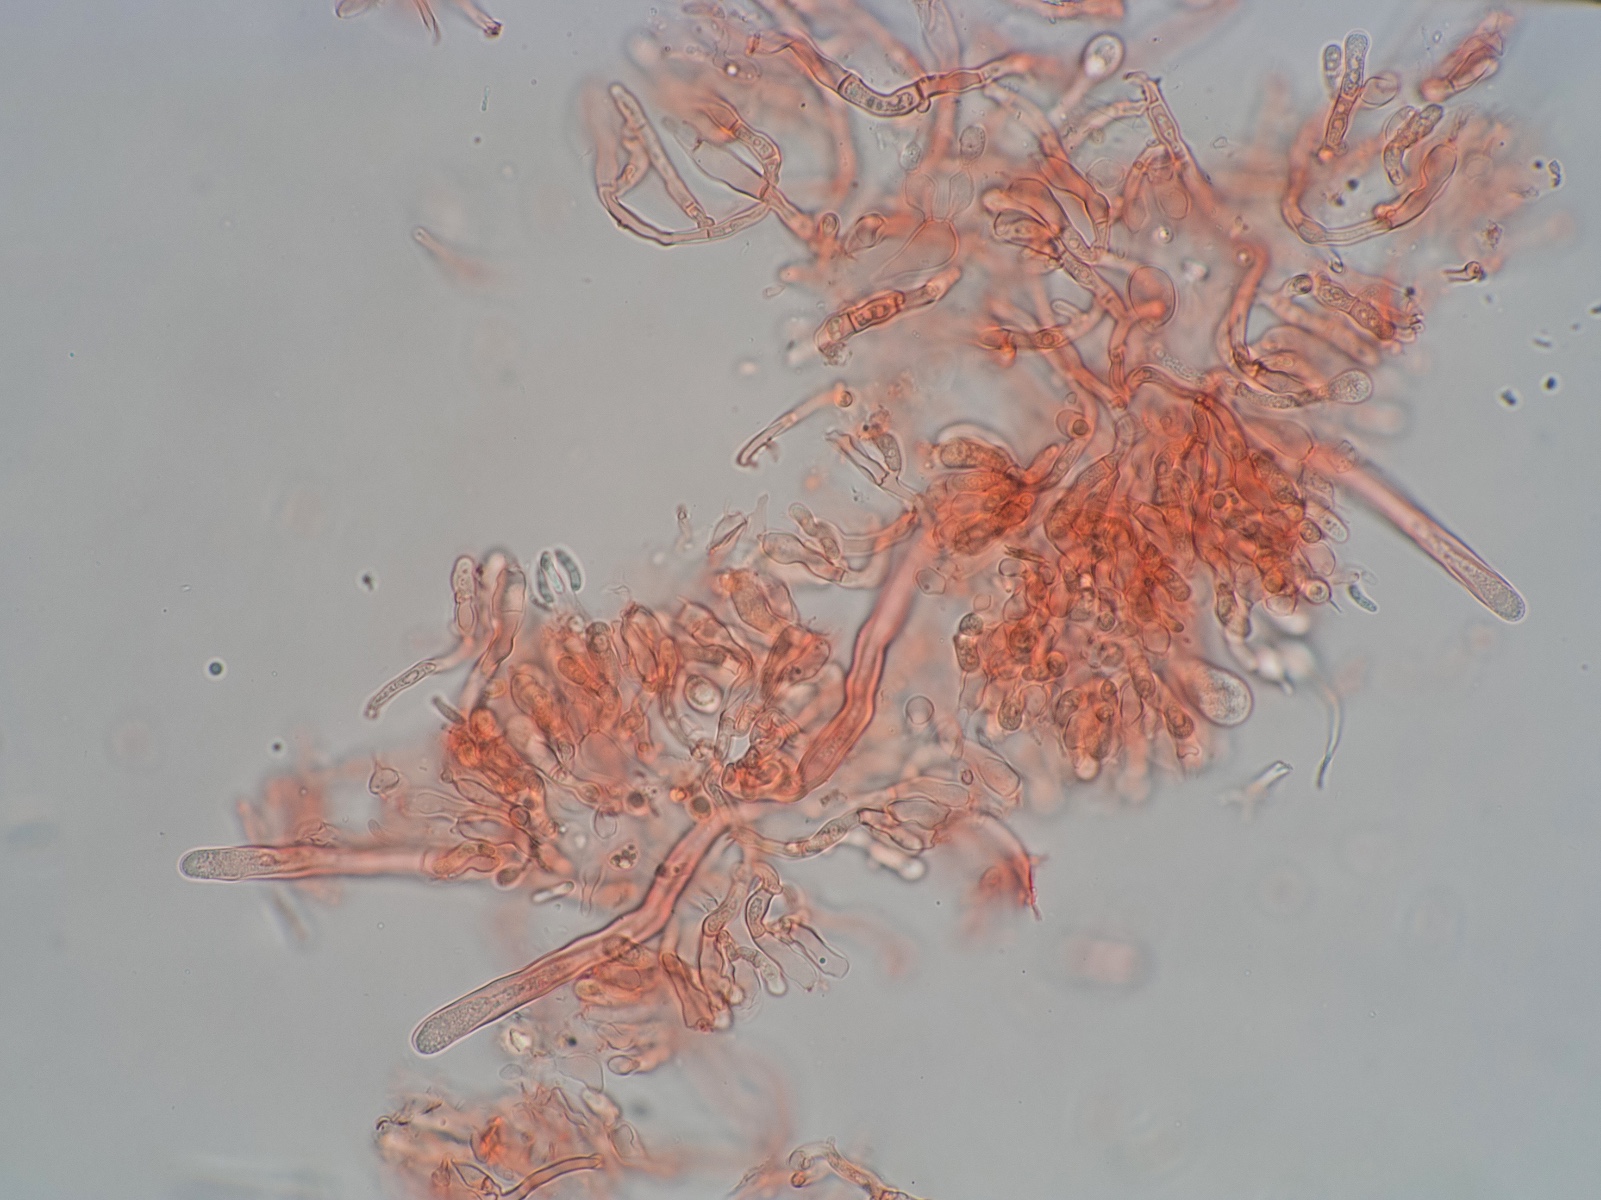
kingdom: Fungi
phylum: Basidiomycota
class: Agaricomycetes
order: Polyporales
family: Hyphodermataceae
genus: Kneiffia
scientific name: Kneiffia subalutacea
